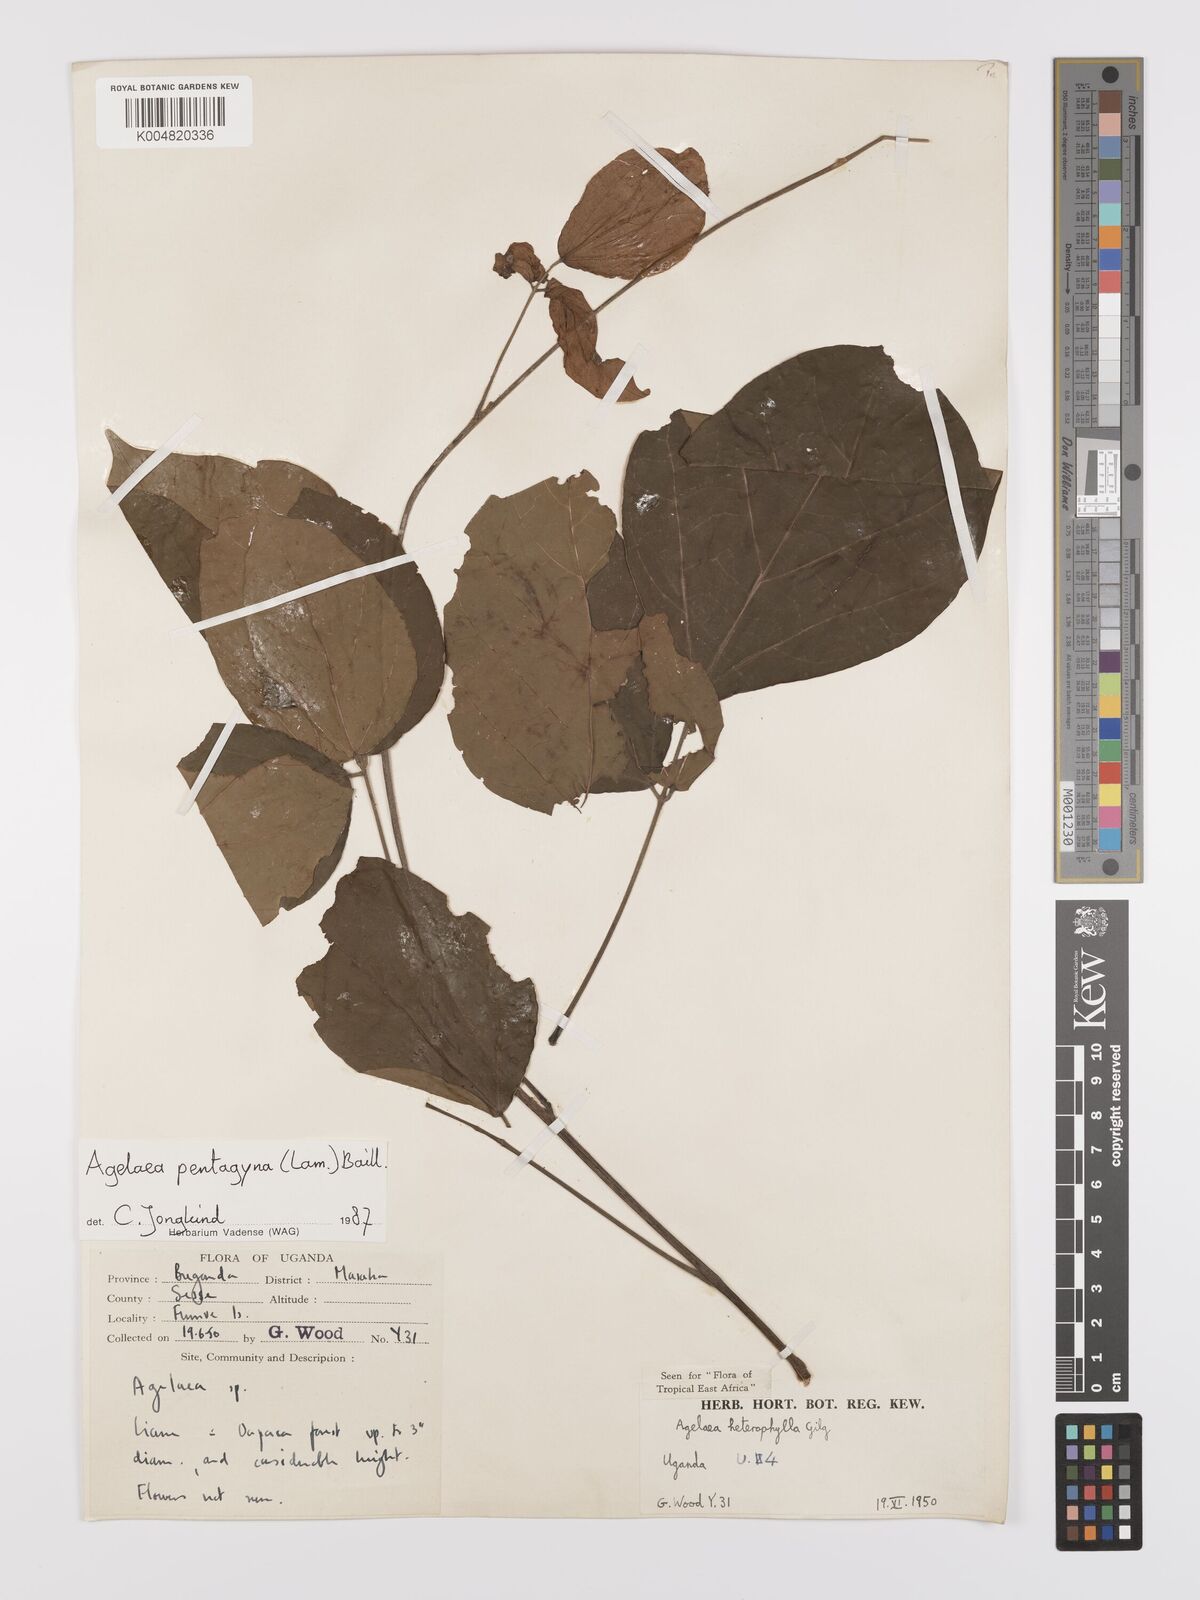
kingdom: Plantae
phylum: Tracheophyta
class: Magnoliopsida
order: Oxalidales
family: Connaraceae
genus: Agelaea
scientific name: Agelaea pentagyna
